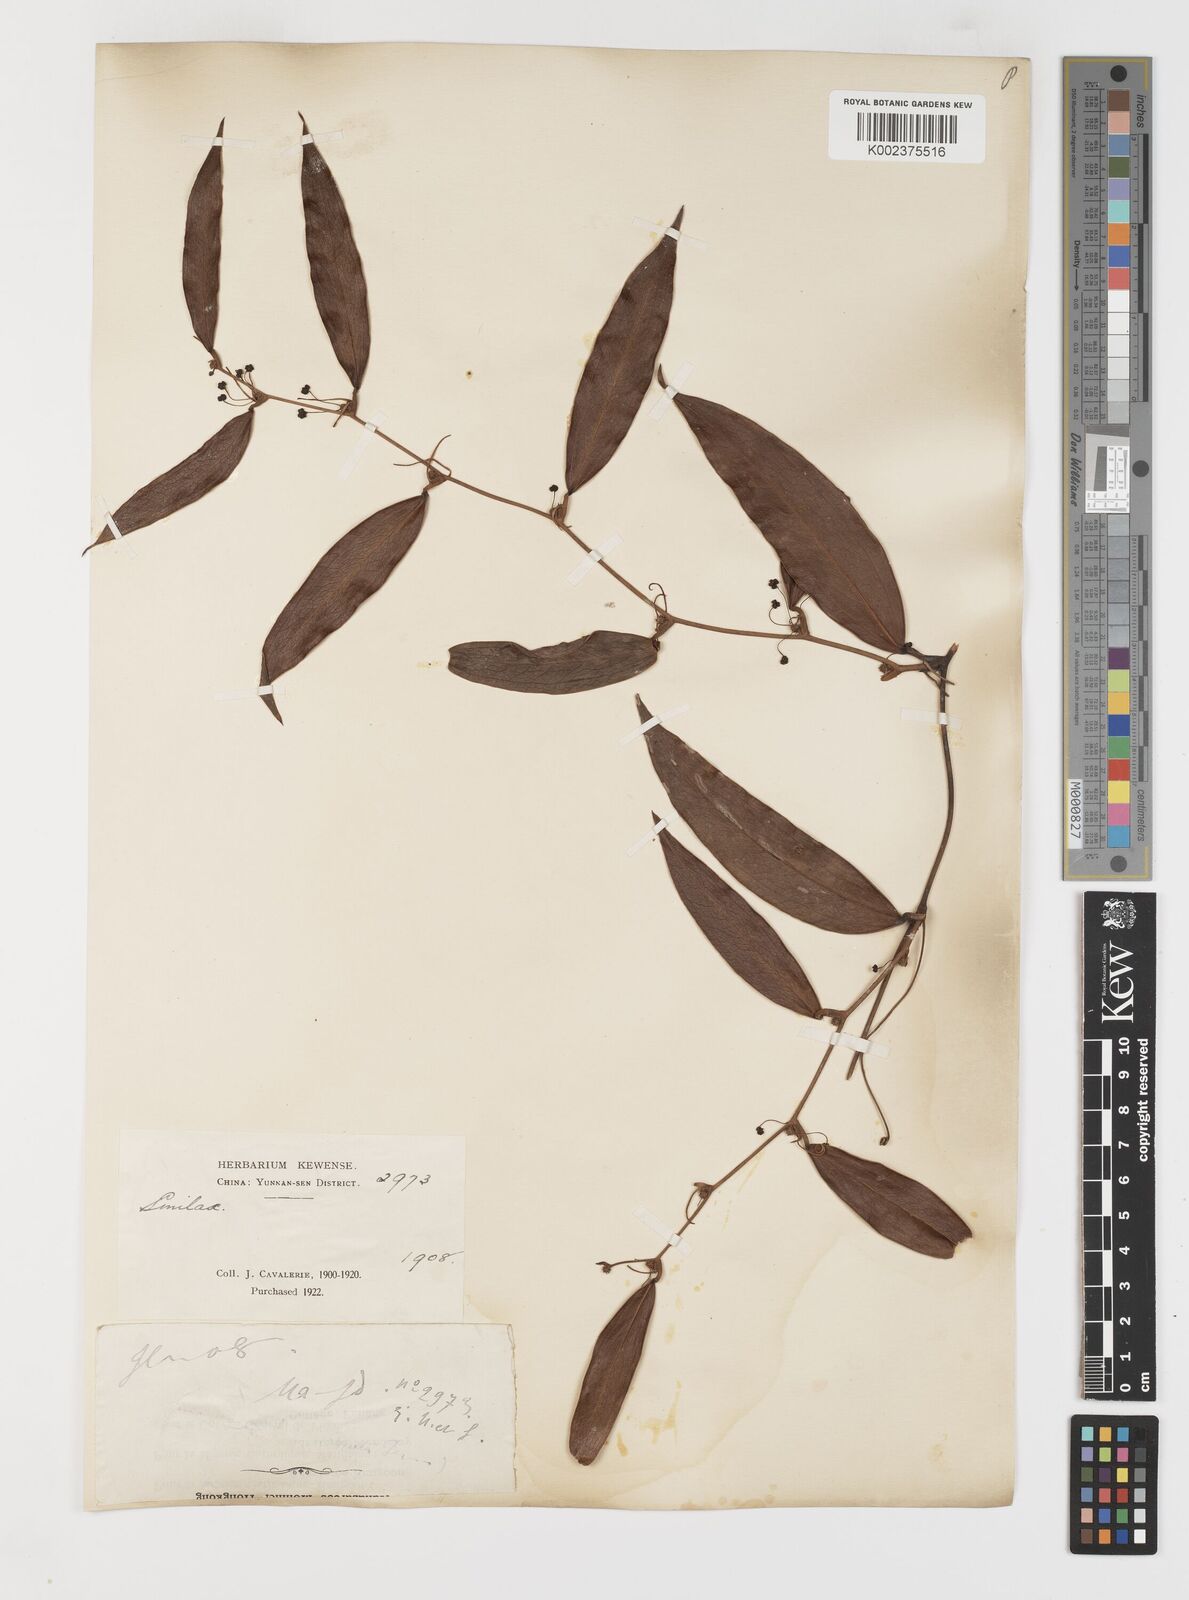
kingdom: Plantae
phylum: Tracheophyta
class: Liliopsida
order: Liliales
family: Smilacaceae
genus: Smilax
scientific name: Smilax glabra
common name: Chinese smilax
